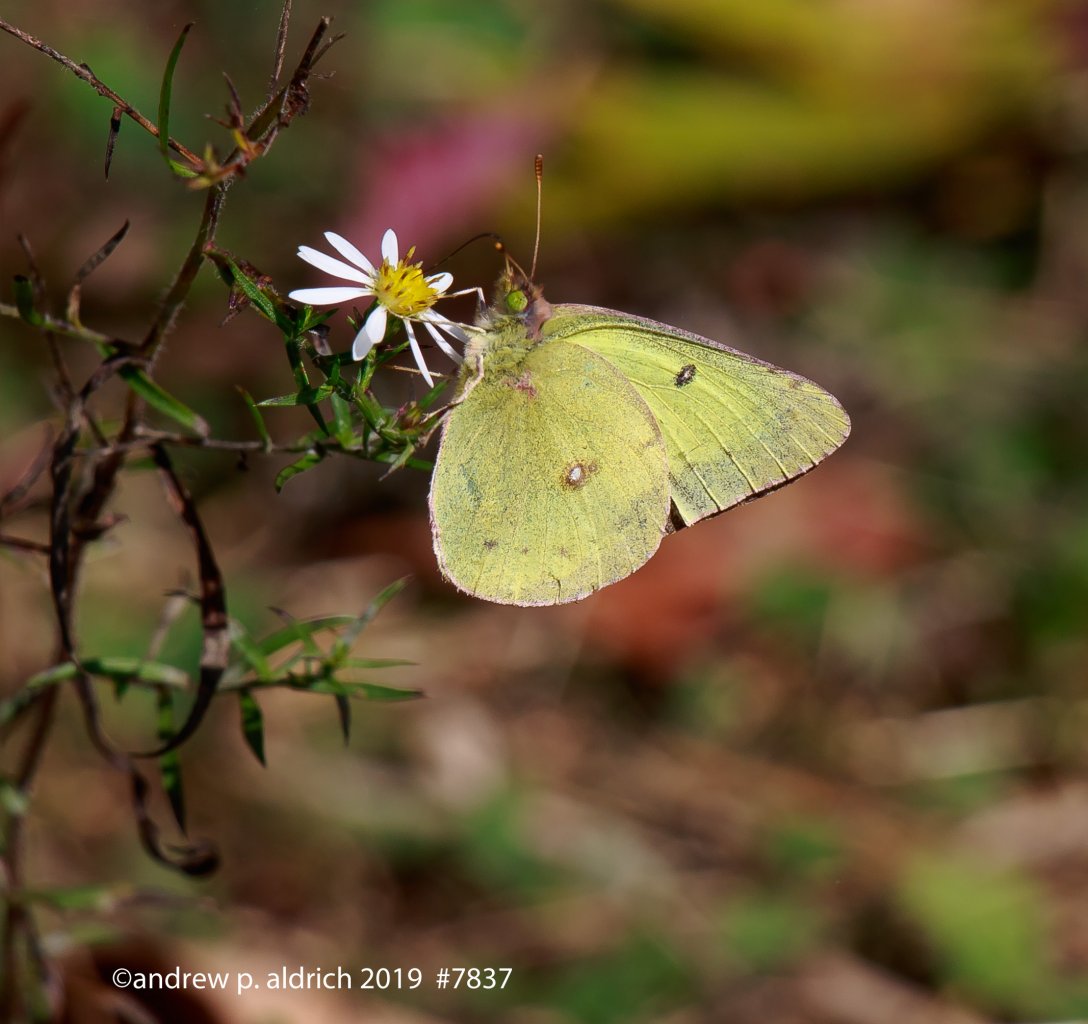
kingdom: Animalia
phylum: Arthropoda
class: Insecta
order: Lepidoptera
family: Pieridae
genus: Colias
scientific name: Colias
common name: Clouded Yellows
